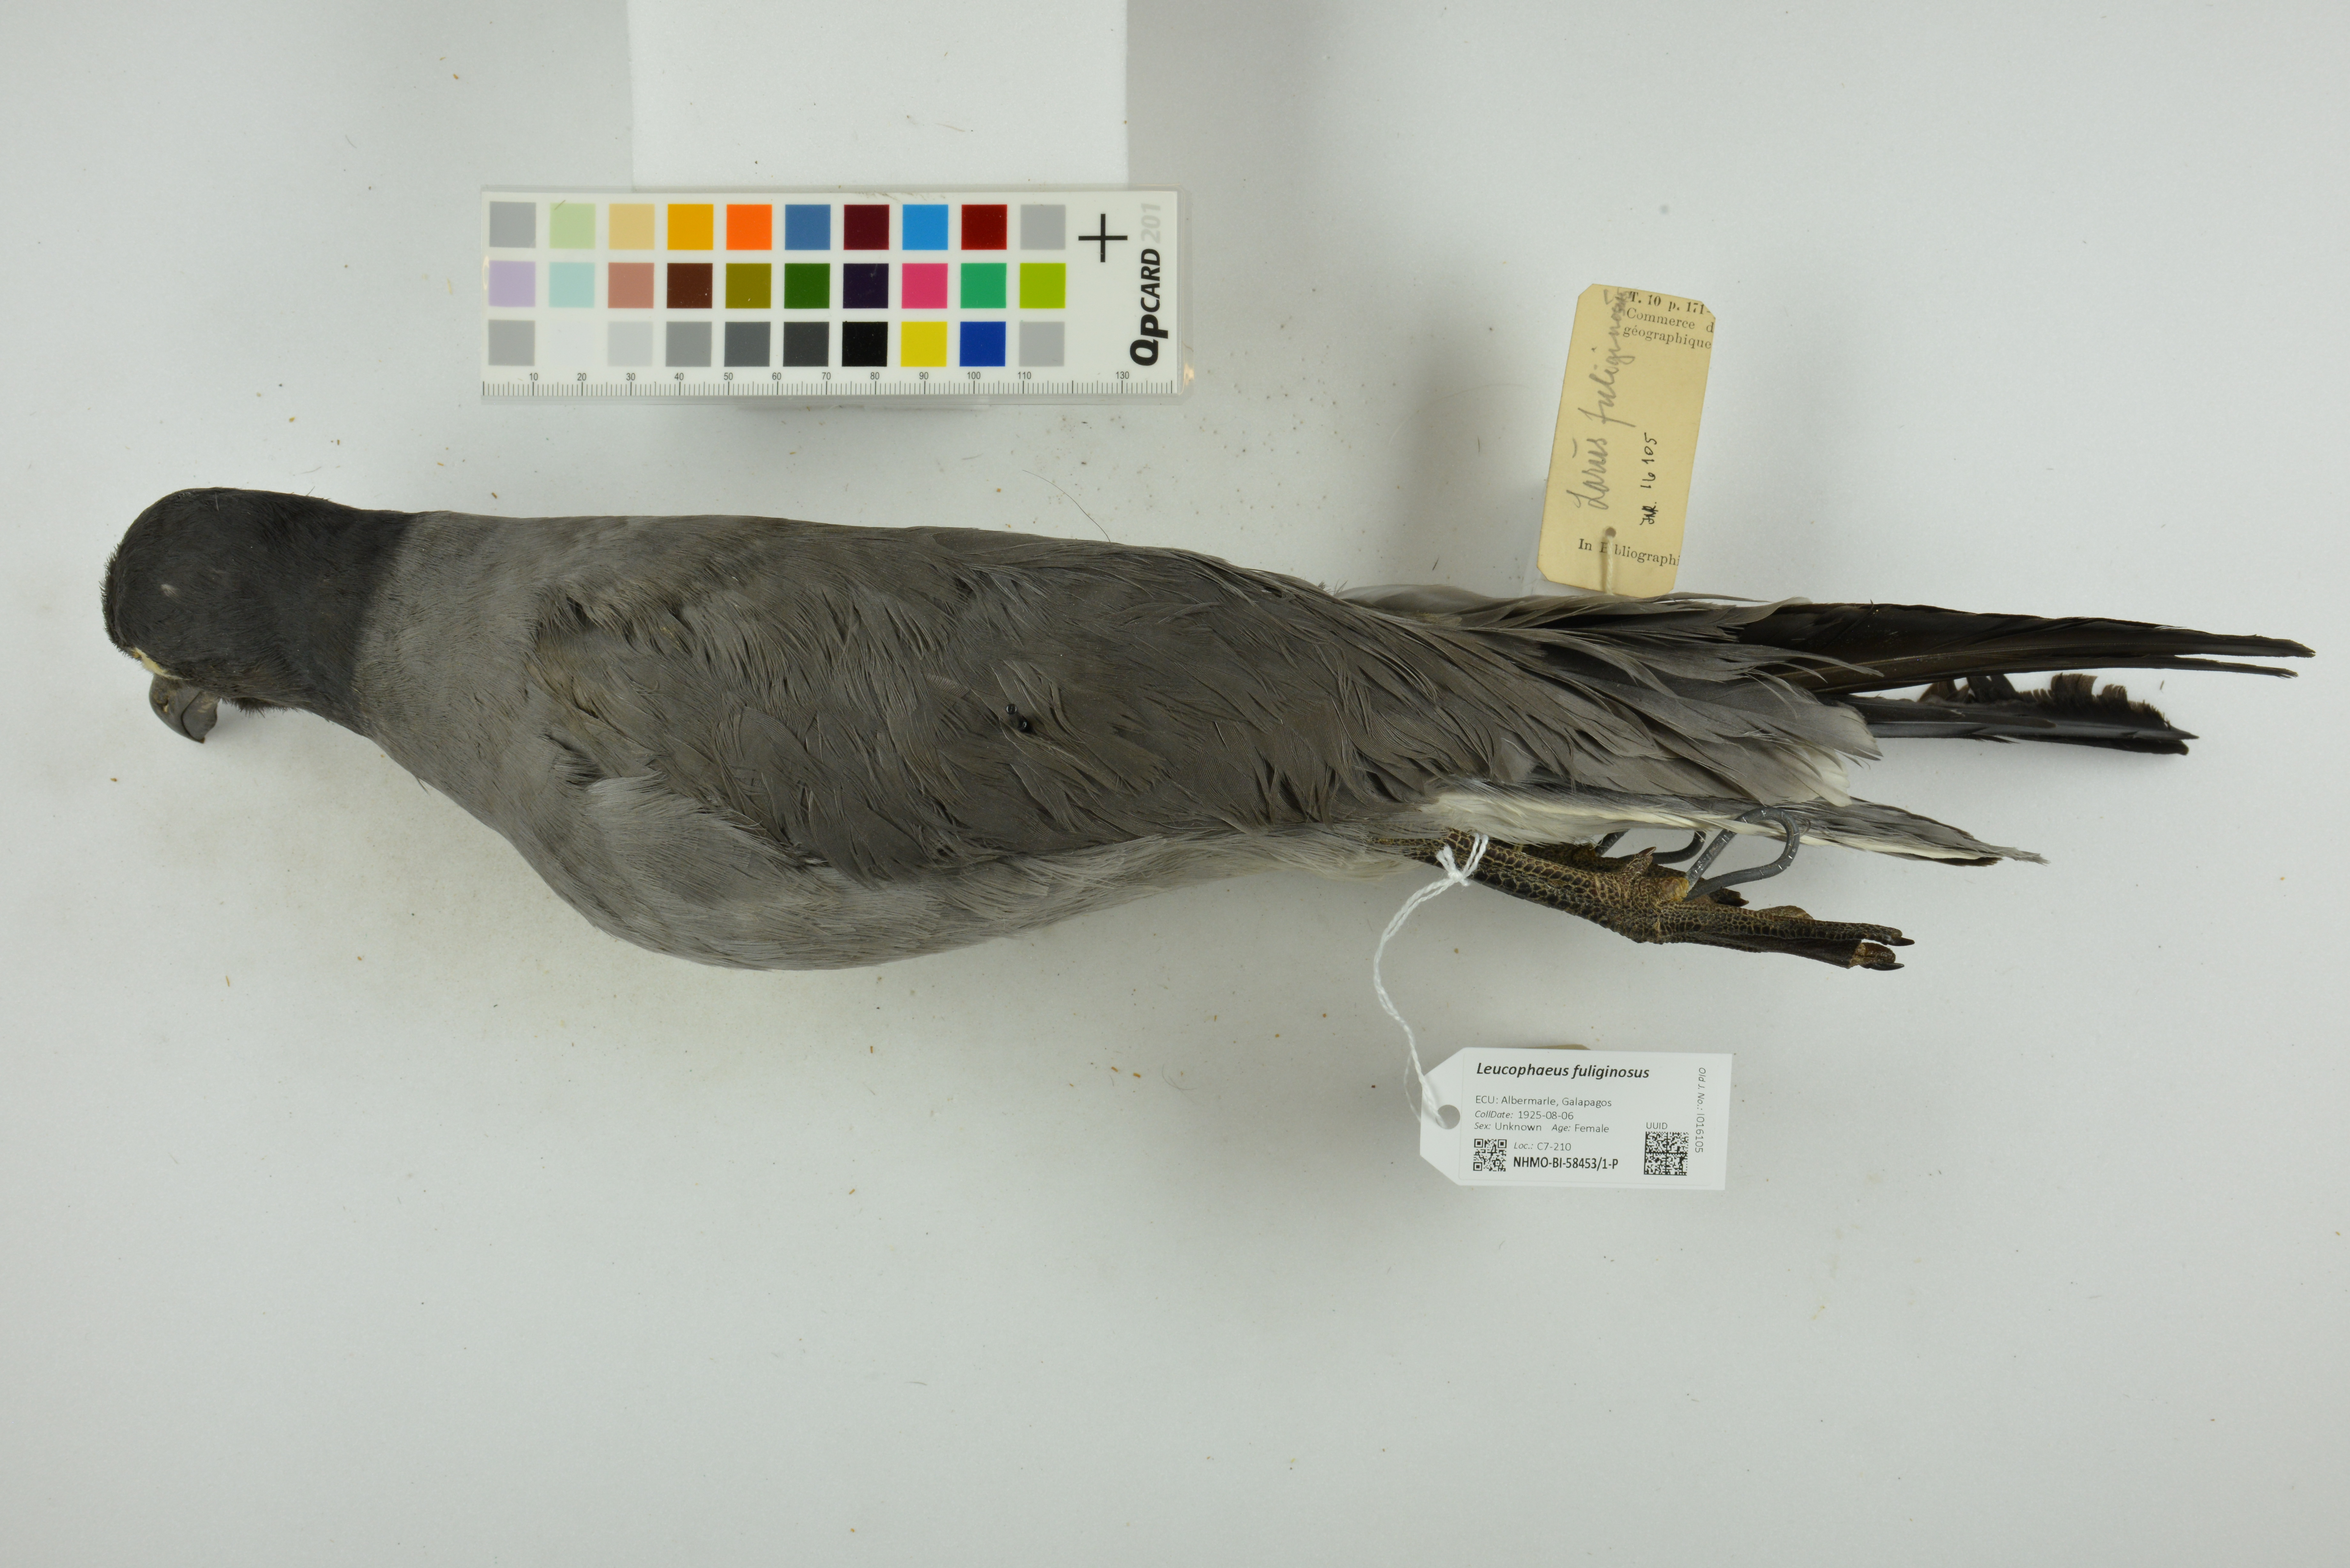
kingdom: Animalia
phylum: Chordata
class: Aves
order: Charadriiformes
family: Laridae
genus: Leucophaeus
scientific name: Leucophaeus fuliginosus
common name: Lava gull
